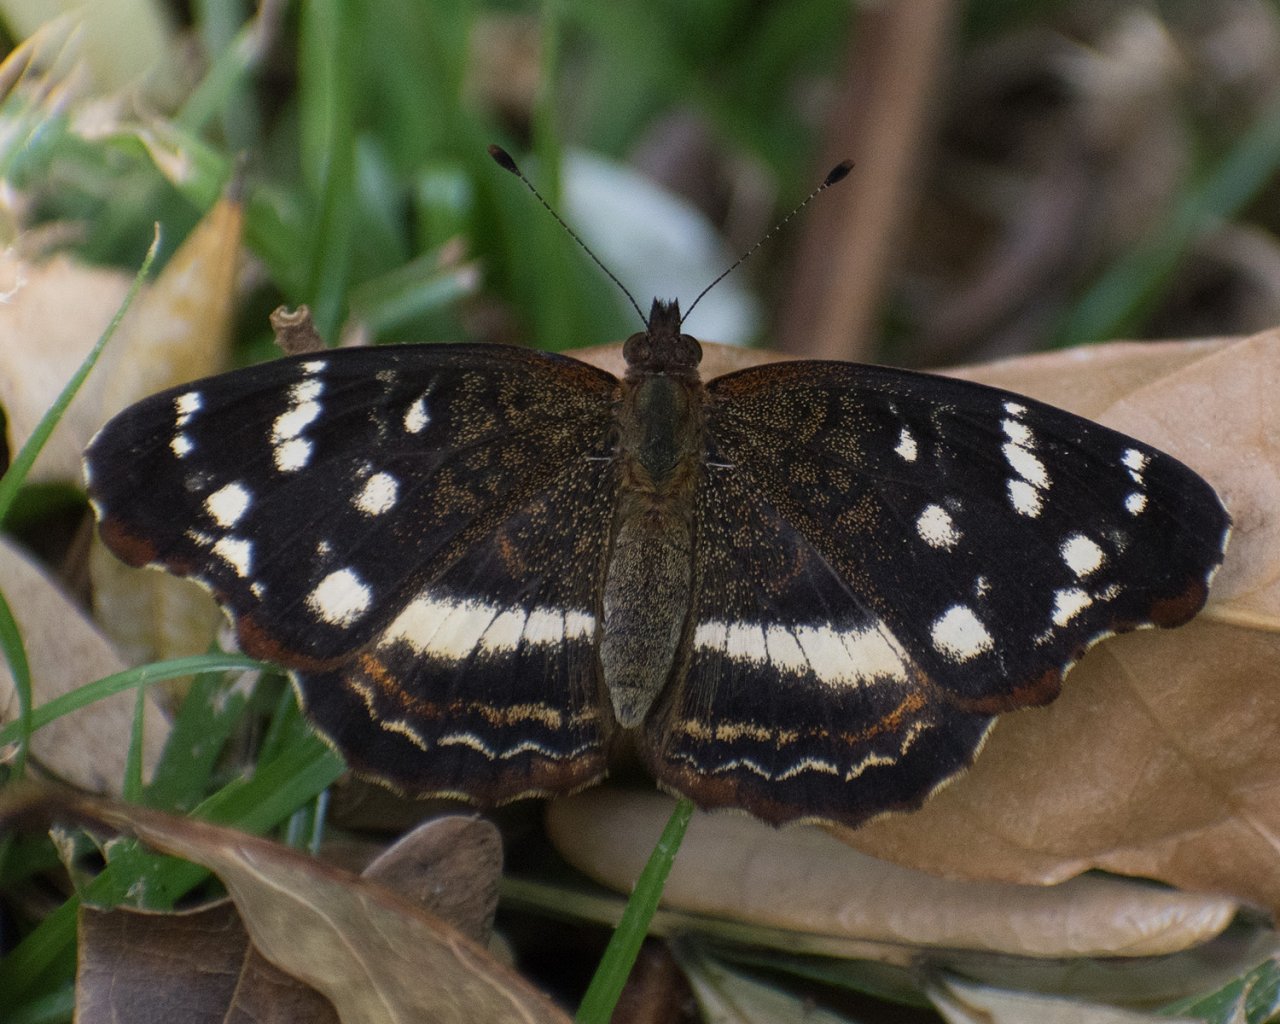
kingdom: Animalia
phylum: Arthropoda
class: Insecta
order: Lepidoptera
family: Nymphalidae
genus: Anthanassa
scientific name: Anthanassa dracaena
